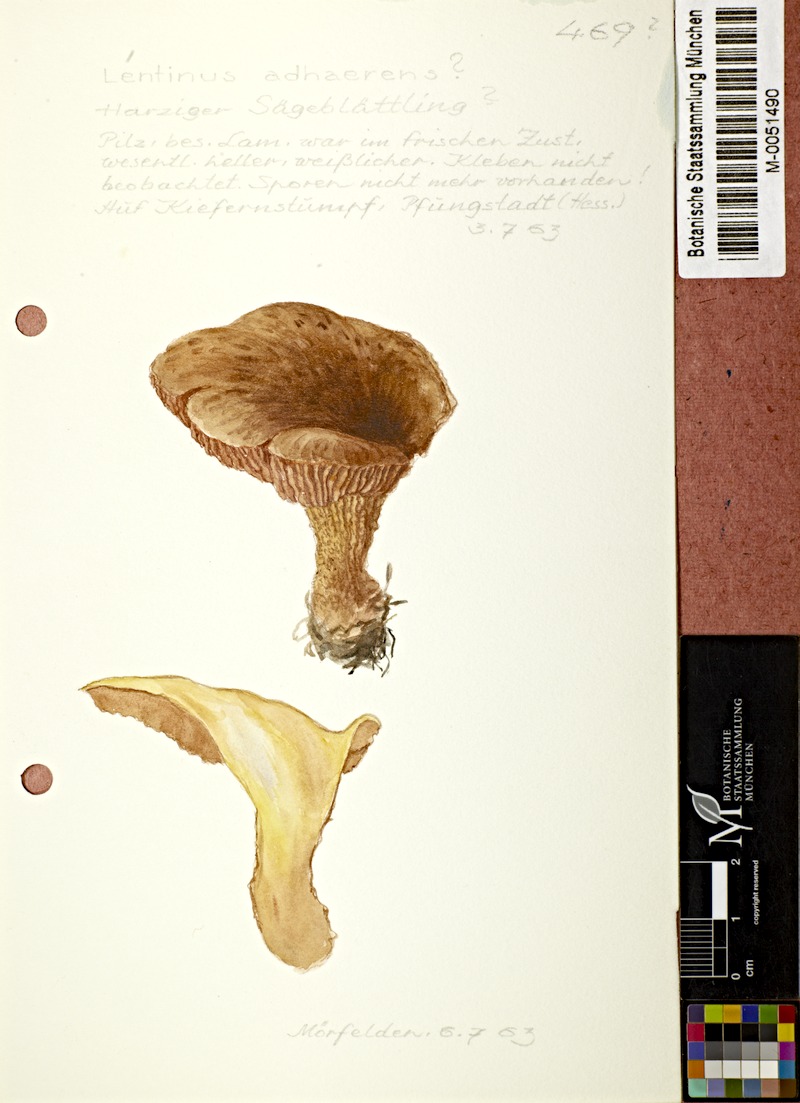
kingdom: Fungi
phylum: Basidiomycota
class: Agaricomycetes
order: Gloeophyllales
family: Gloeophyllaceae
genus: Neolentinus
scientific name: Neolentinus adhaerens
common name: Sticky sawgill
